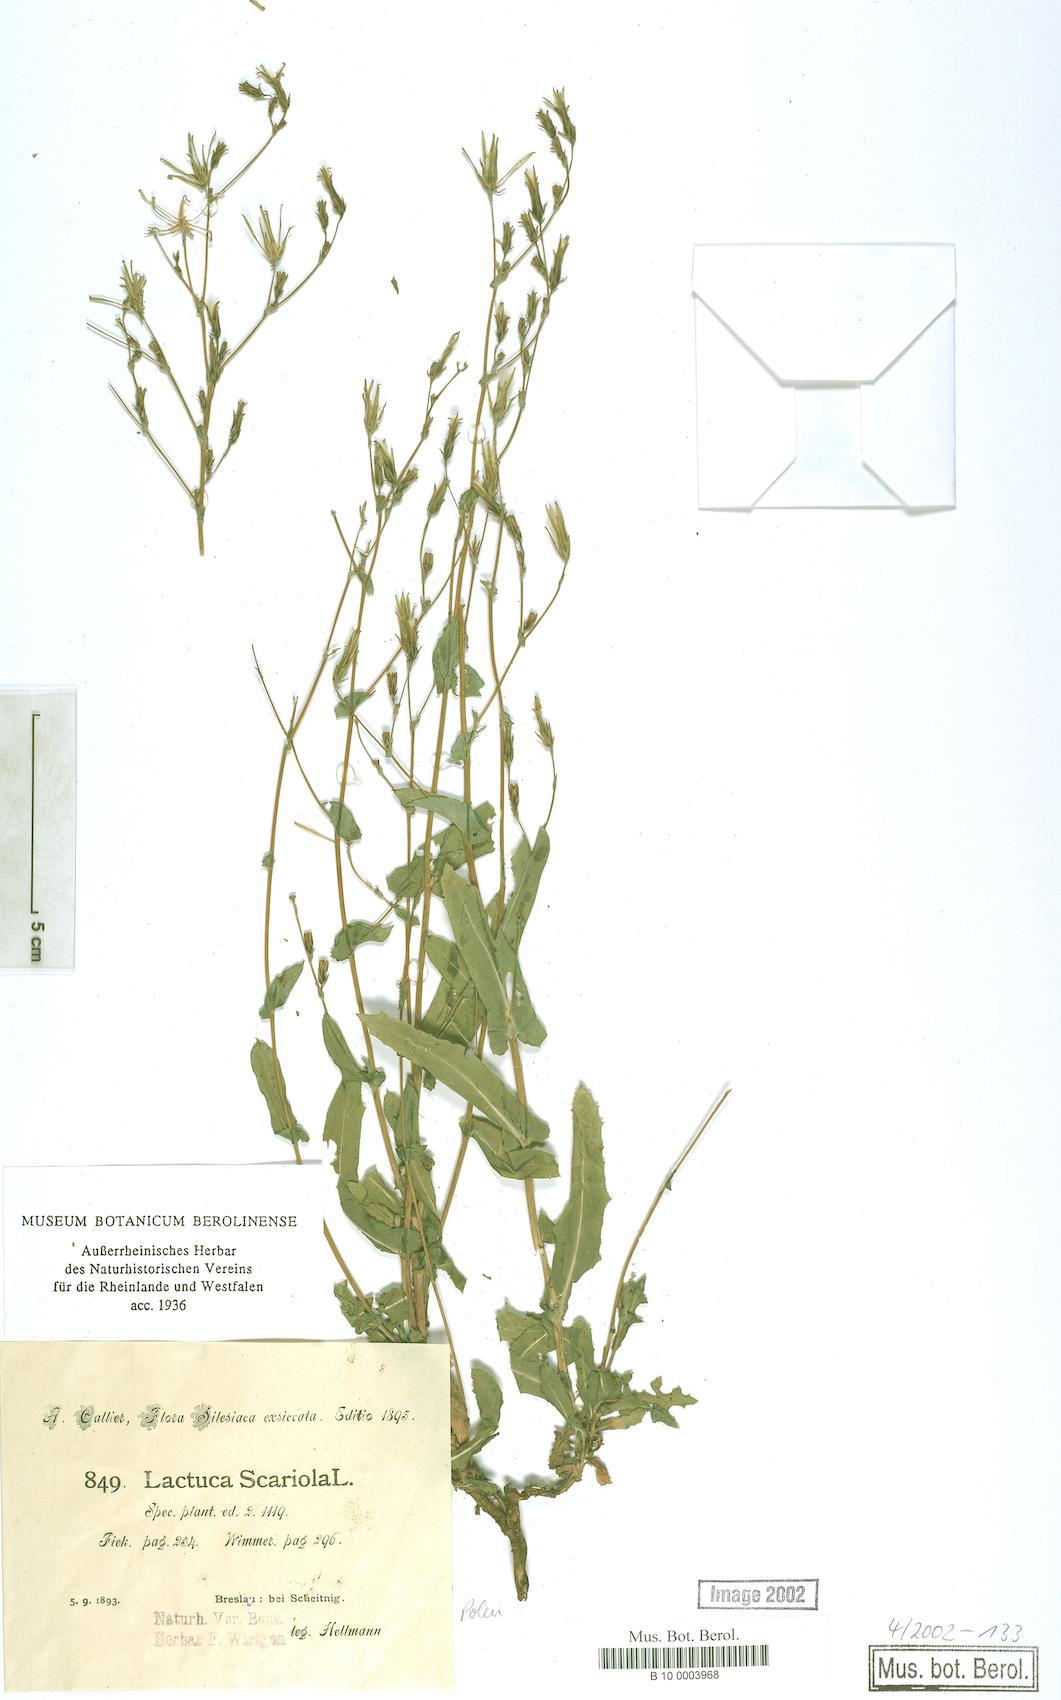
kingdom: Plantae
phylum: Tracheophyta
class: Magnoliopsida
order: Asterales
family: Asteraceae
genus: Lactuca
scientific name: Lactuca serriola
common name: Prickly lettuce
